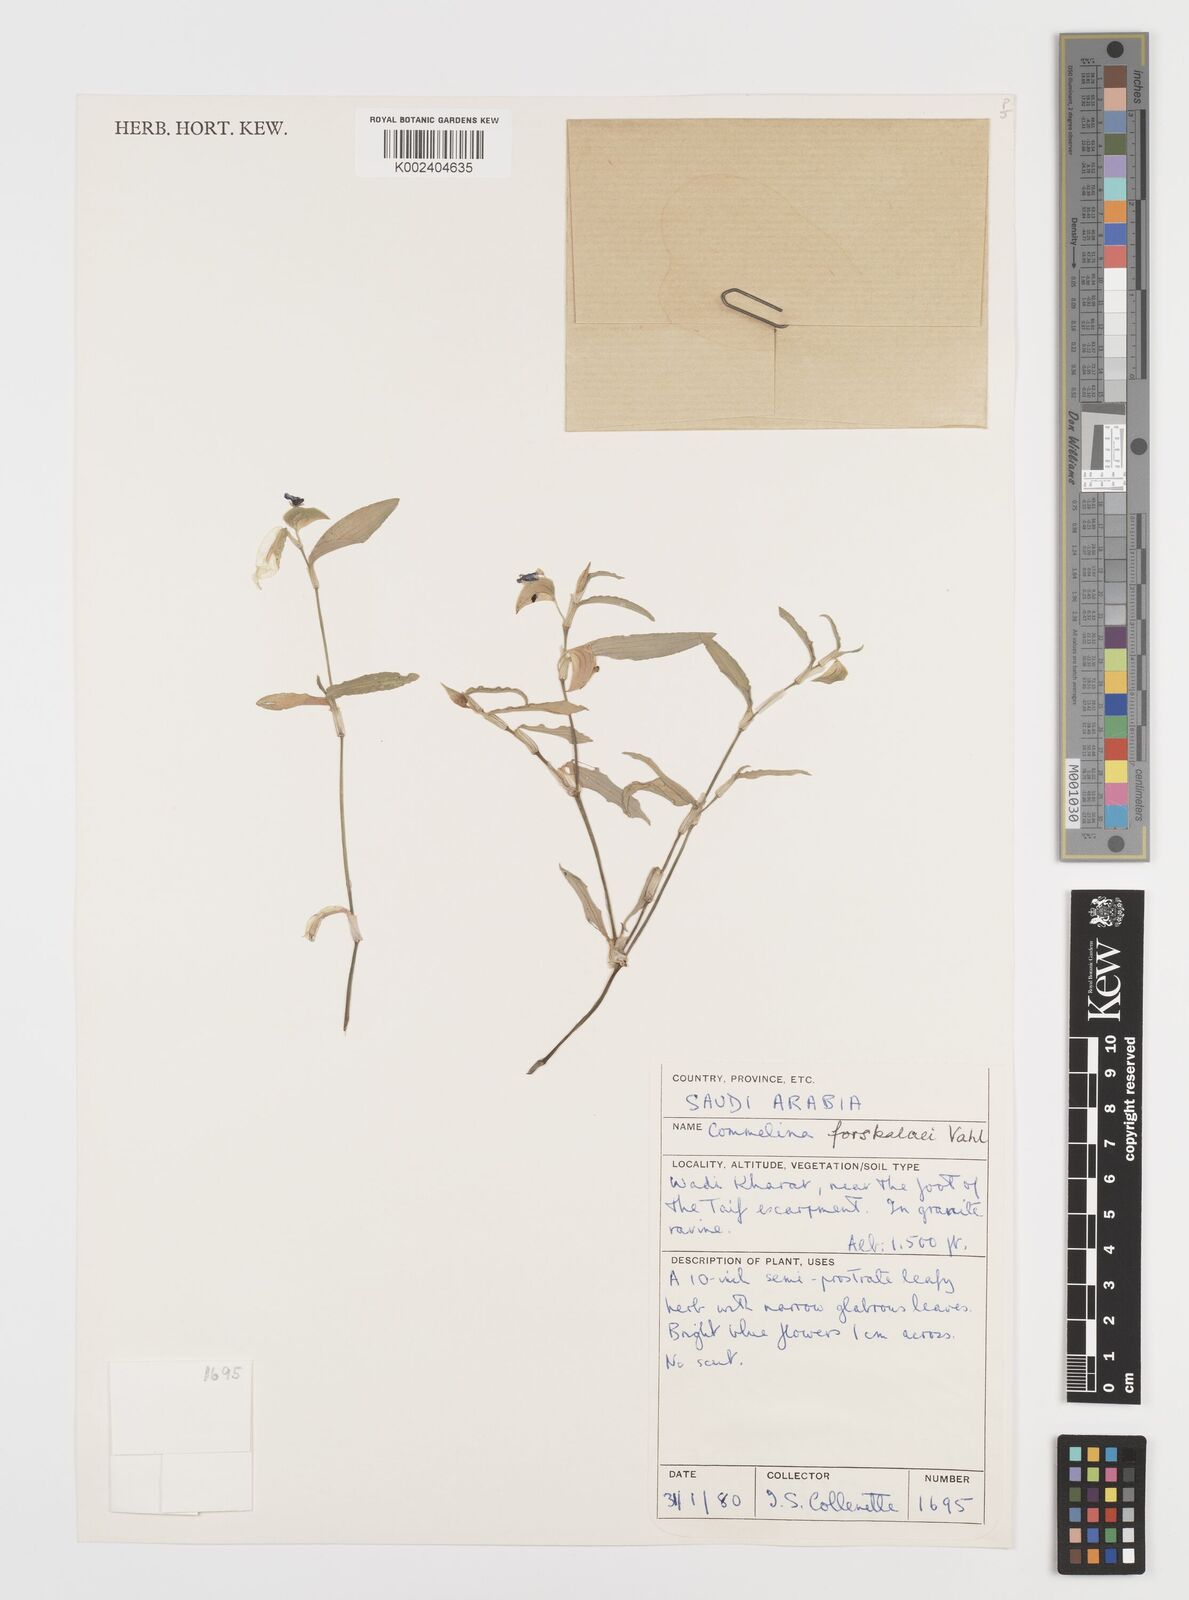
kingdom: Plantae
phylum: Tracheophyta
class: Liliopsida
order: Commelinales
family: Commelinaceae
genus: Commelina
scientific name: Commelina forskaolii
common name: Rat's ear
